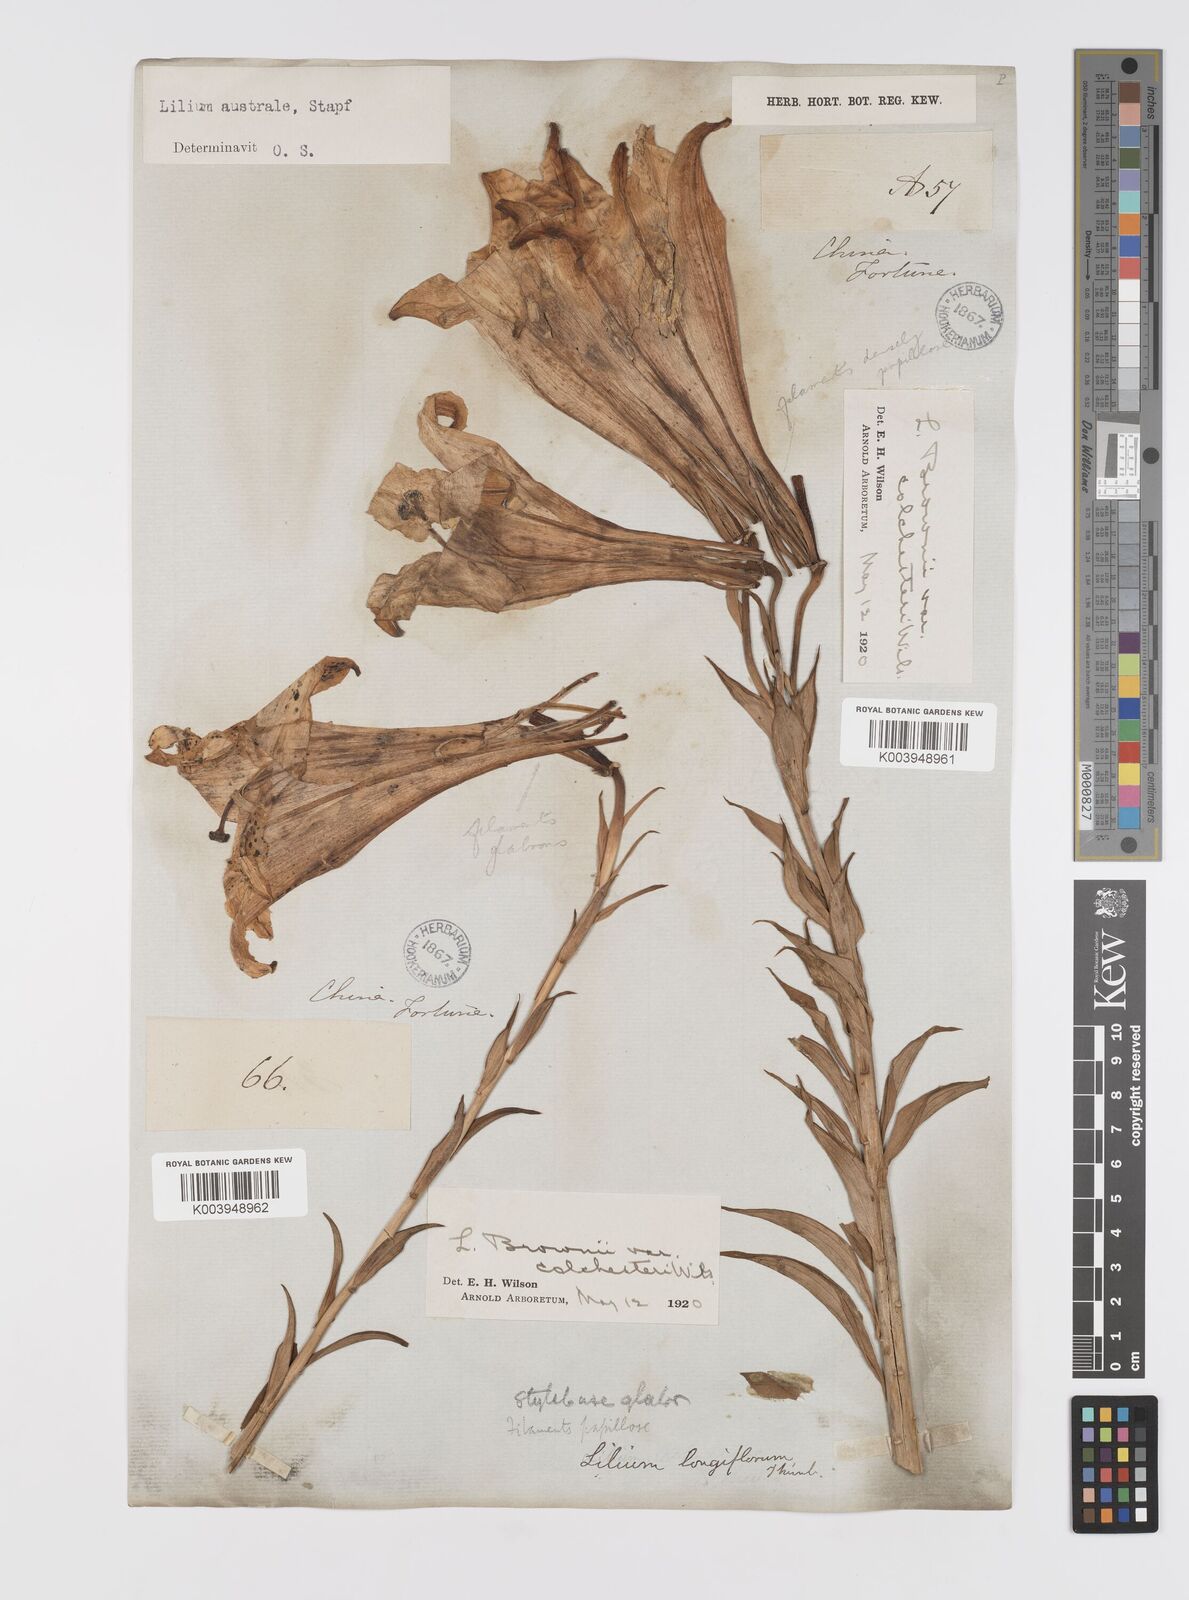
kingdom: Plantae
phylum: Tracheophyta
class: Liliopsida
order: Liliales
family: Liliaceae
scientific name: Liliaceae
